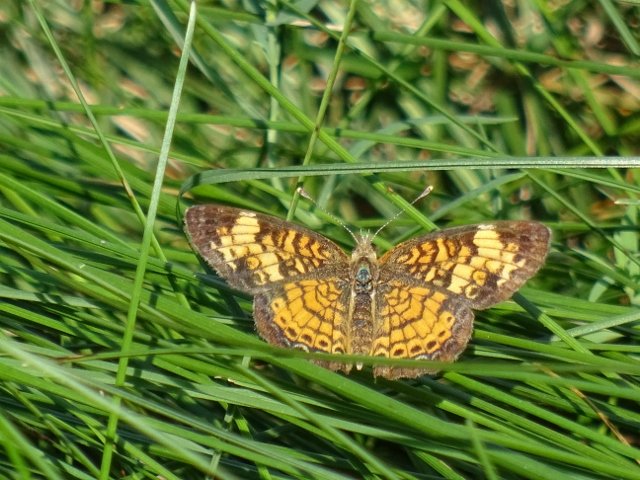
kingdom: Animalia
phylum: Arthropoda
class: Insecta
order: Lepidoptera
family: Nymphalidae
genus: Phyciodes
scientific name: Phyciodes tharos
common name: Pearl Crescent
